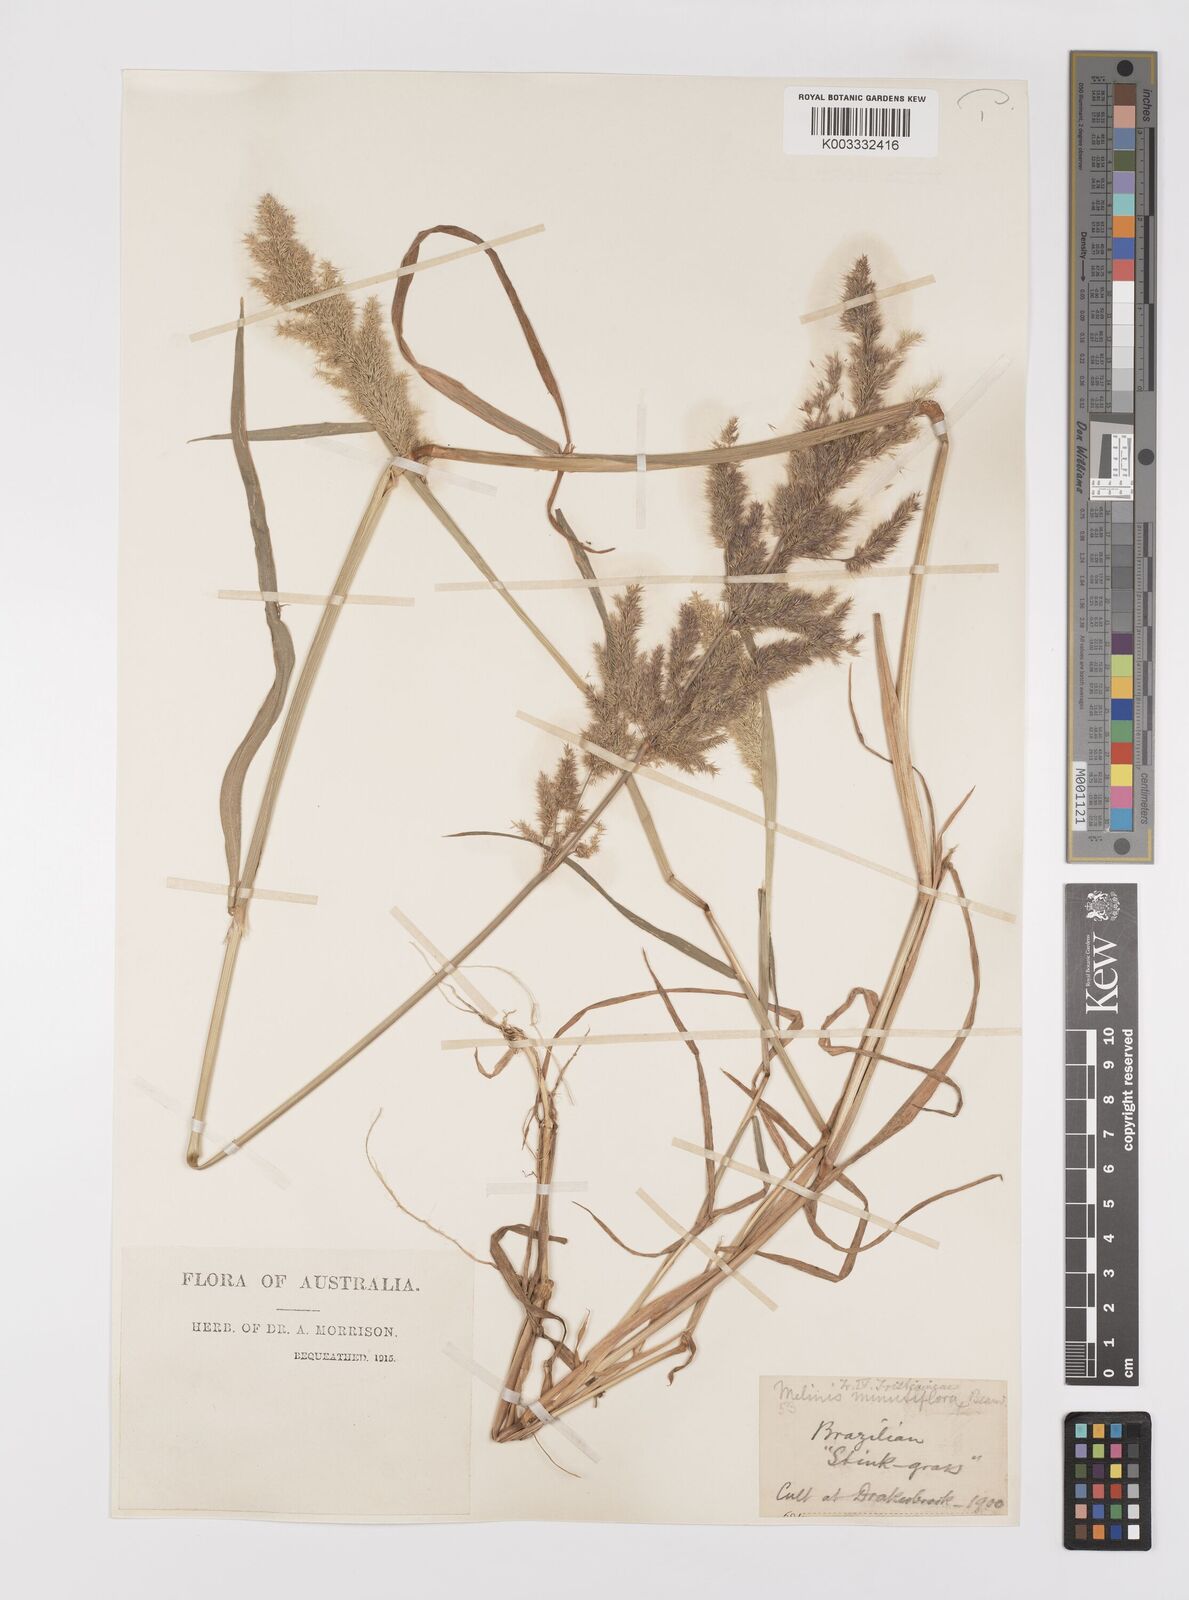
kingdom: Plantae
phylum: Tracheophyta
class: Liliopsida
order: Poales
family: Poaceae
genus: Polypogon
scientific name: Polypogon fugax
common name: Asia minor bluegrass
